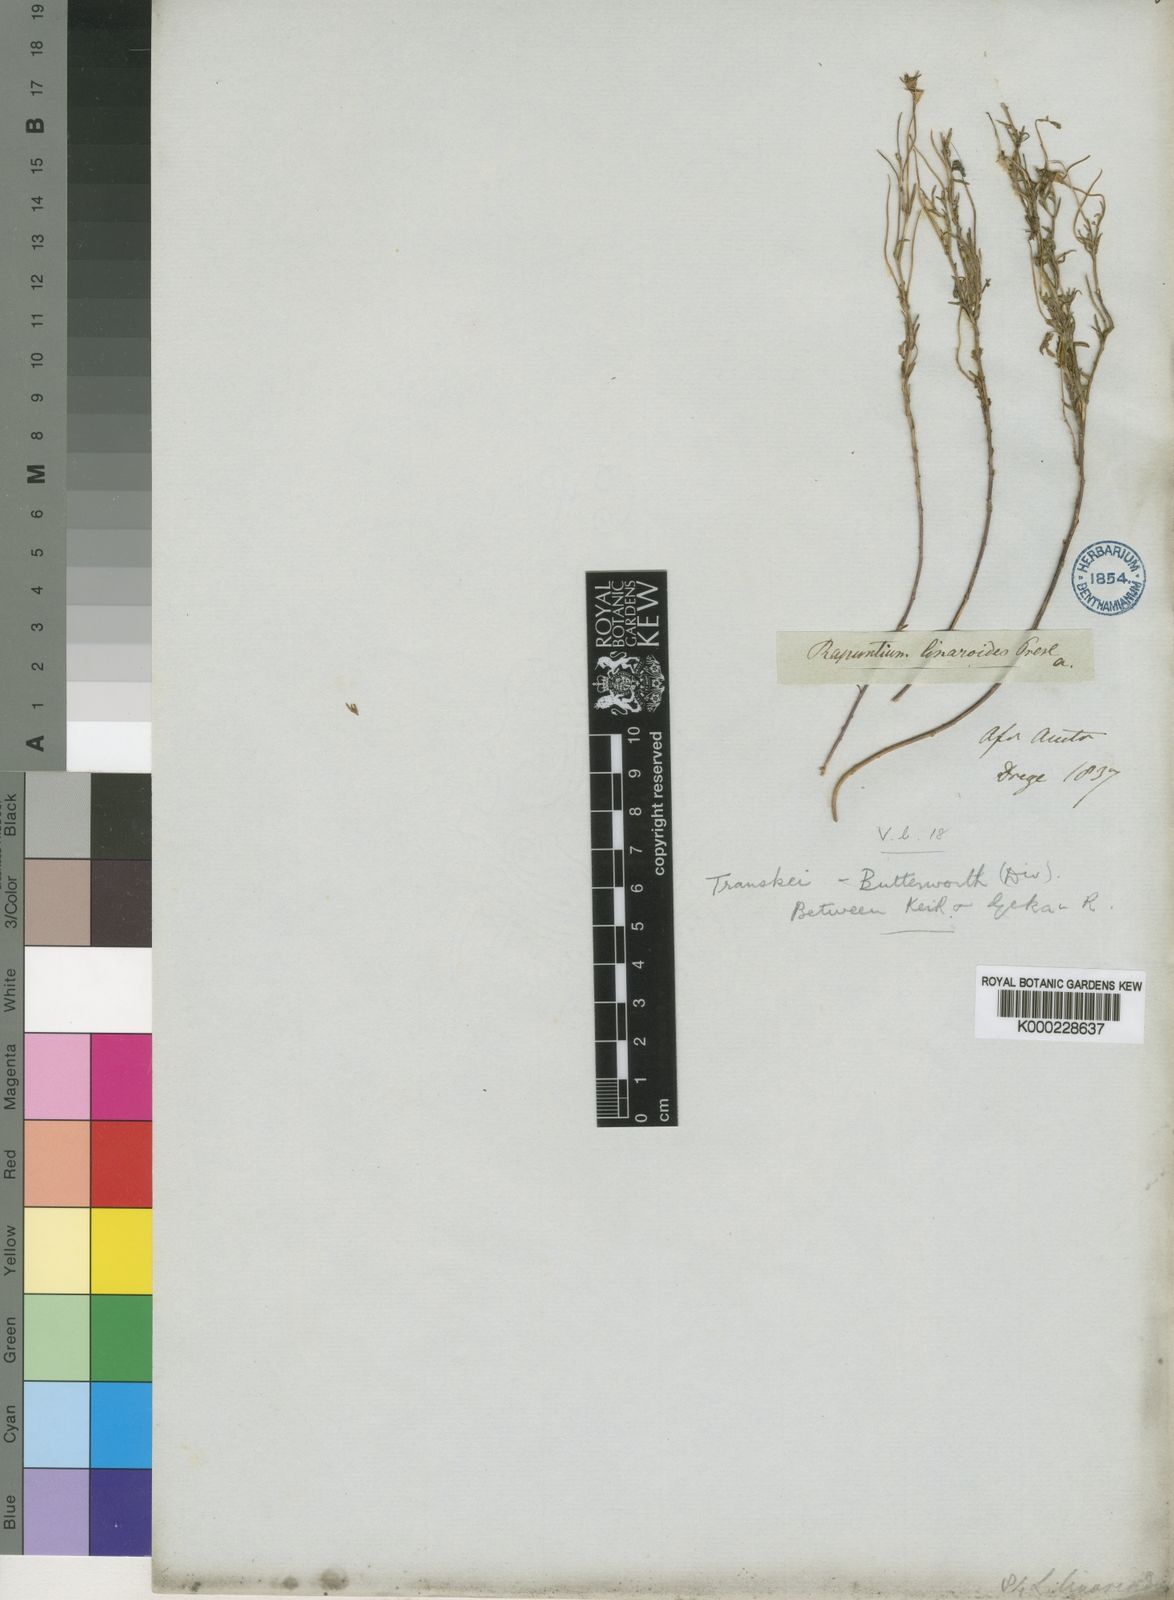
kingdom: Plantae
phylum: Tracheophyta
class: Magnoliopsida
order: Asterales
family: Campanulaceae
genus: Lobelia
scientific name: Lobelia linarioides
